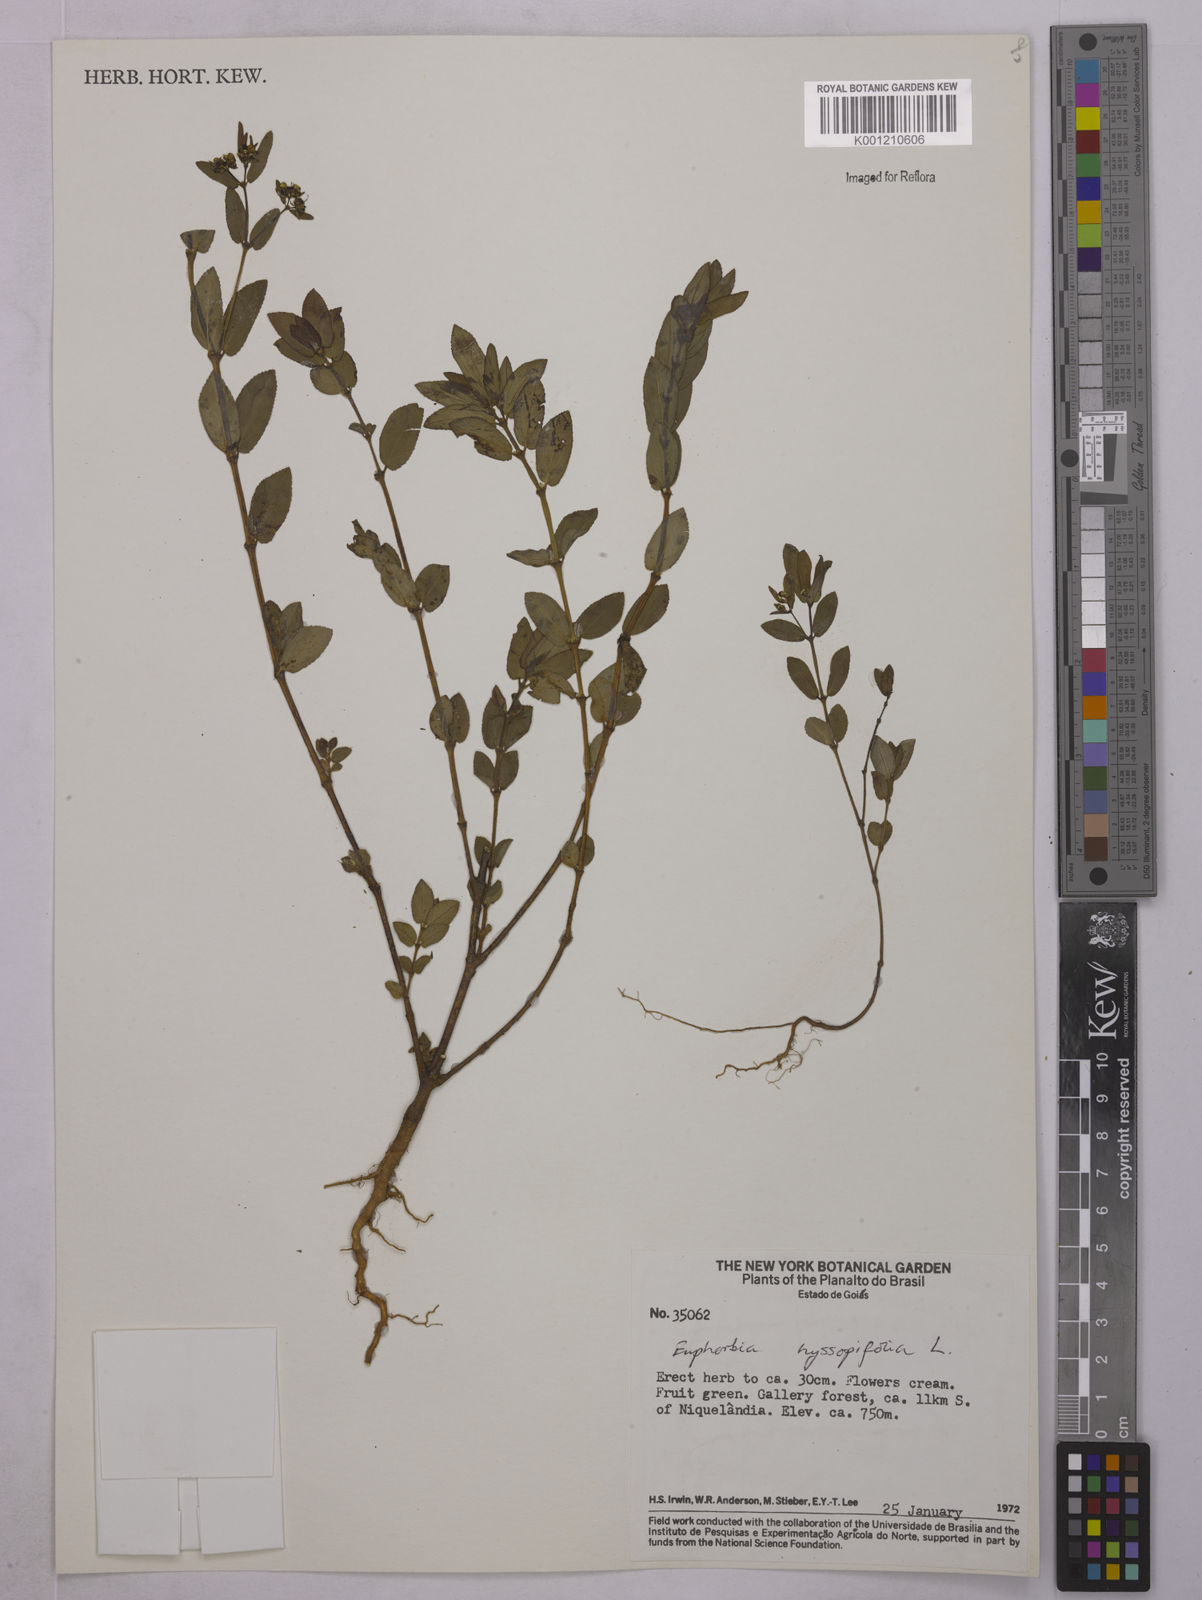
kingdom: Plantae
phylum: Tracheophyta
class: Magnoliopsida
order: Malpighiales
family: Euphorbiaceae
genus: Euphorbia
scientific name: Euphorbia hyssopifolia
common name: Hyssopleaf sandmat
